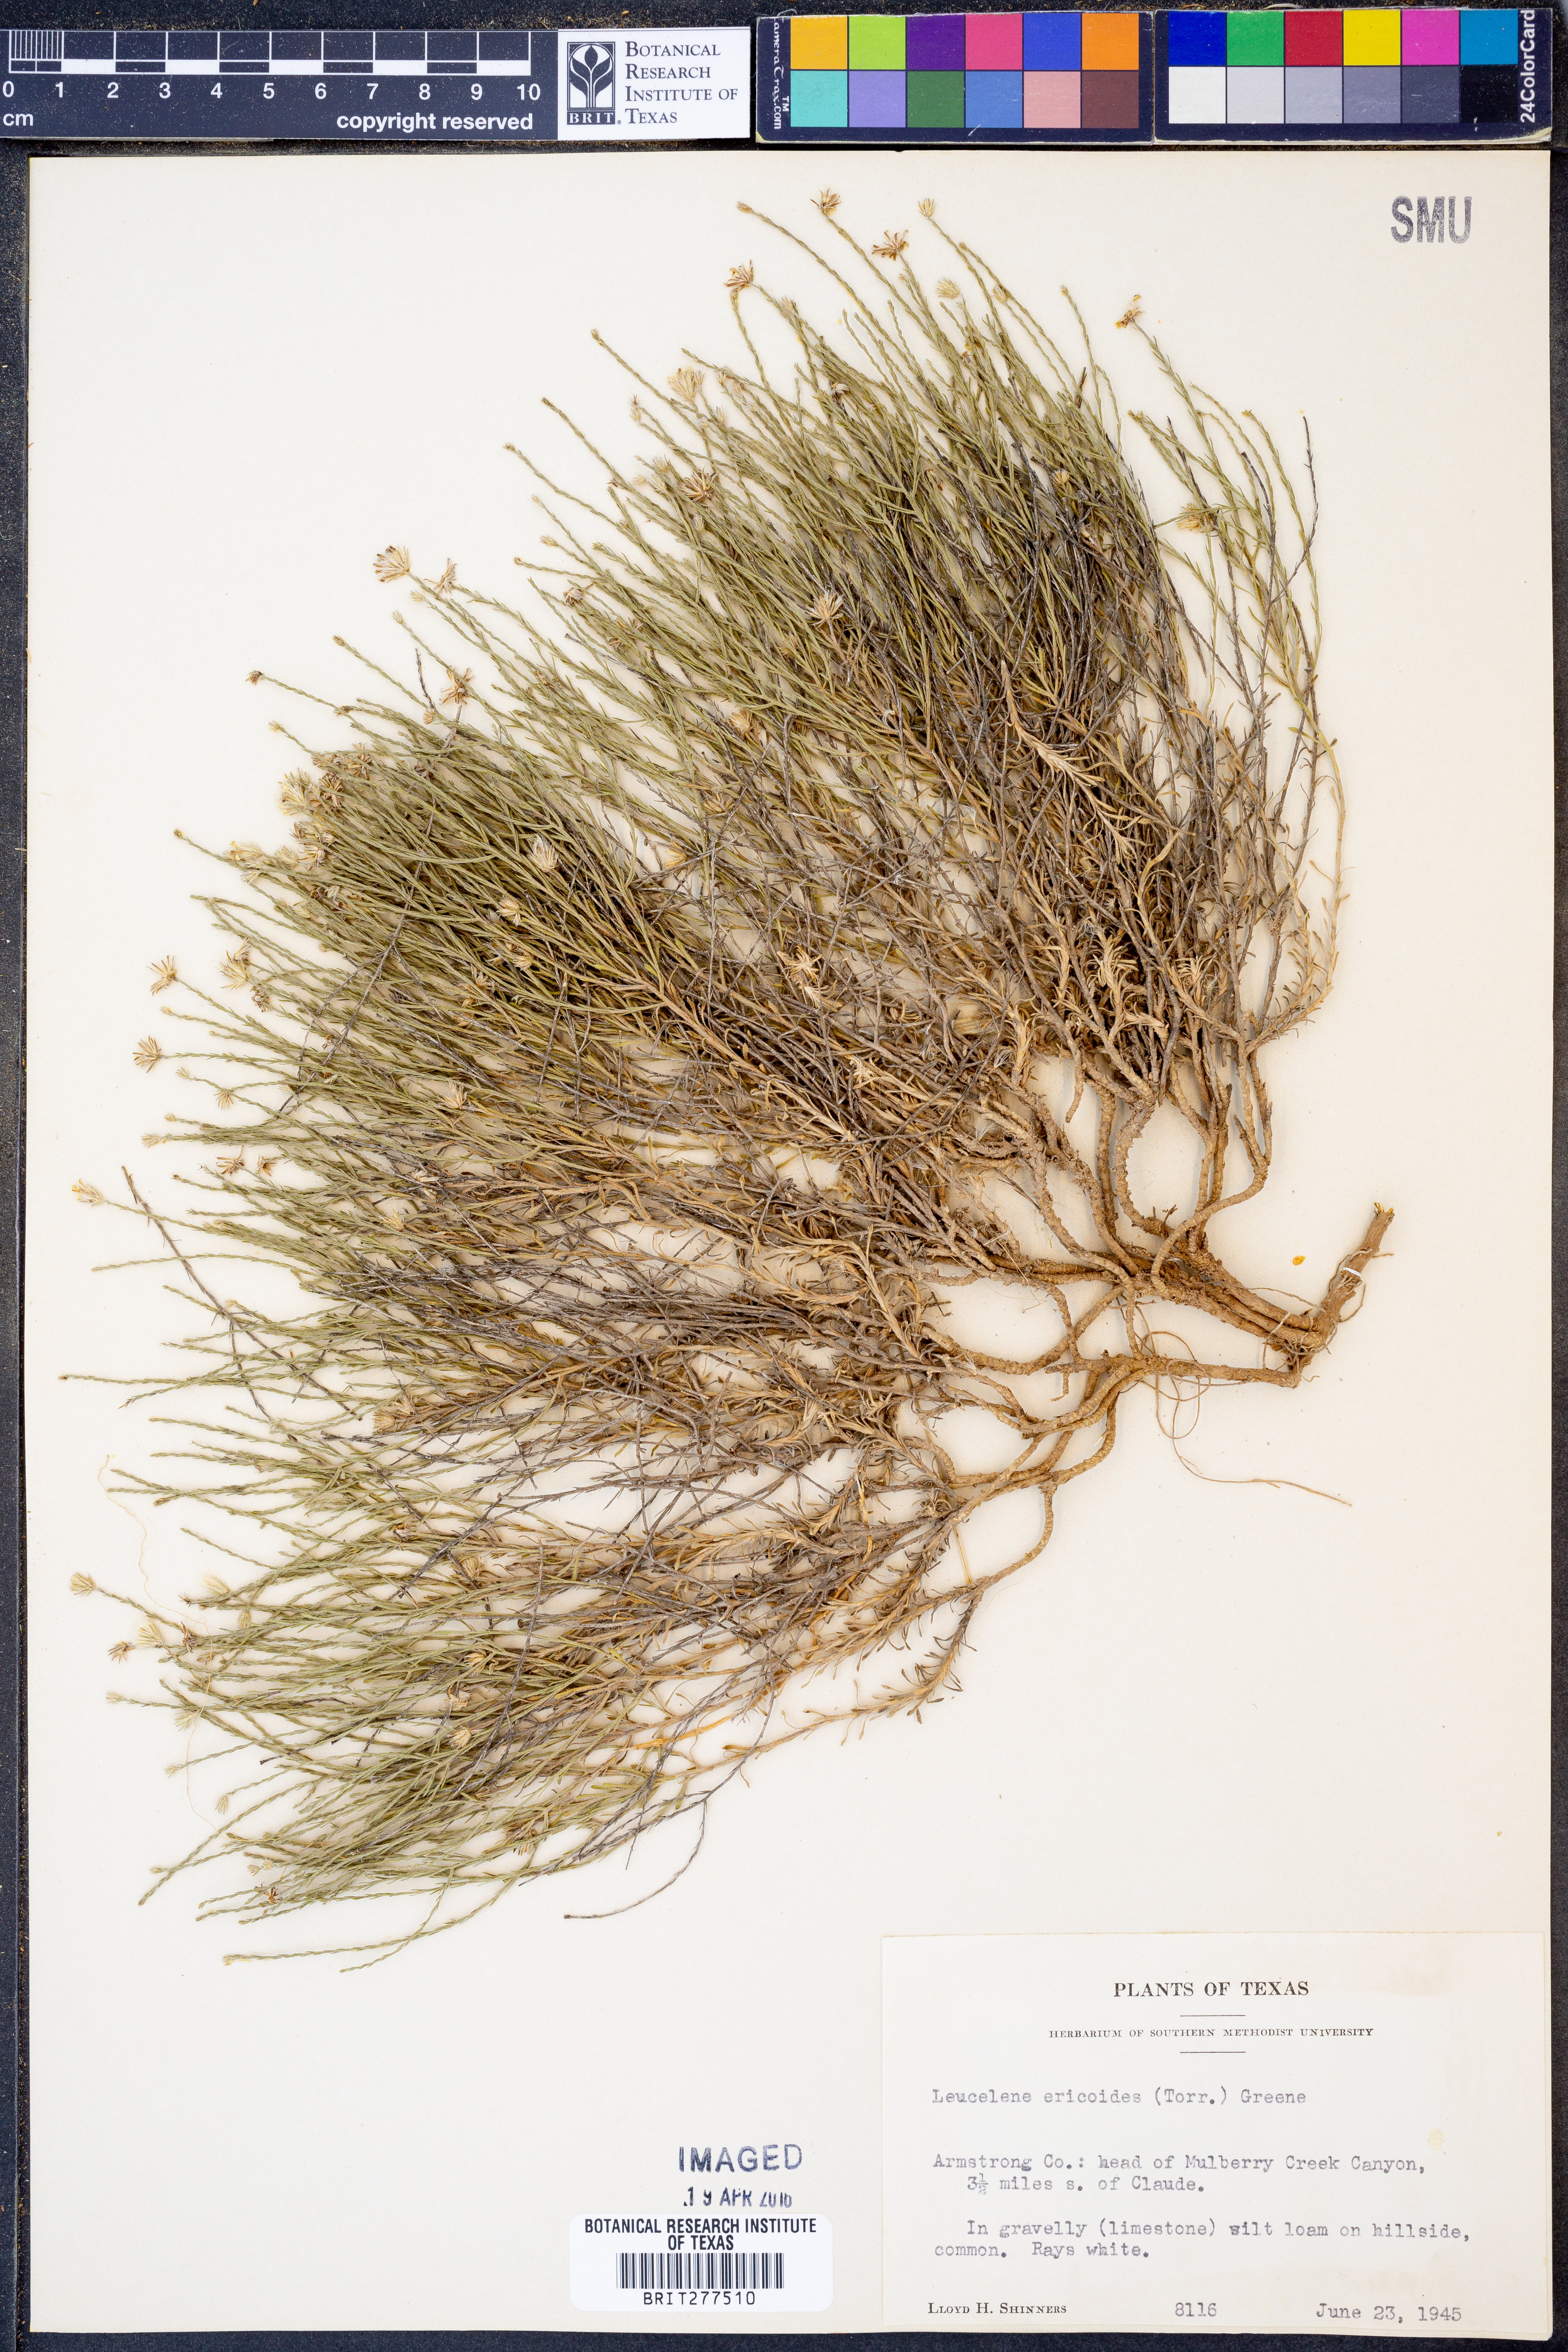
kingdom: Plantae
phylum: Tracheophyta
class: Magnoliopsida
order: Asterales
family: Asteraceae
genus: Chaetopappa
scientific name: Chaetopappa ericoides
